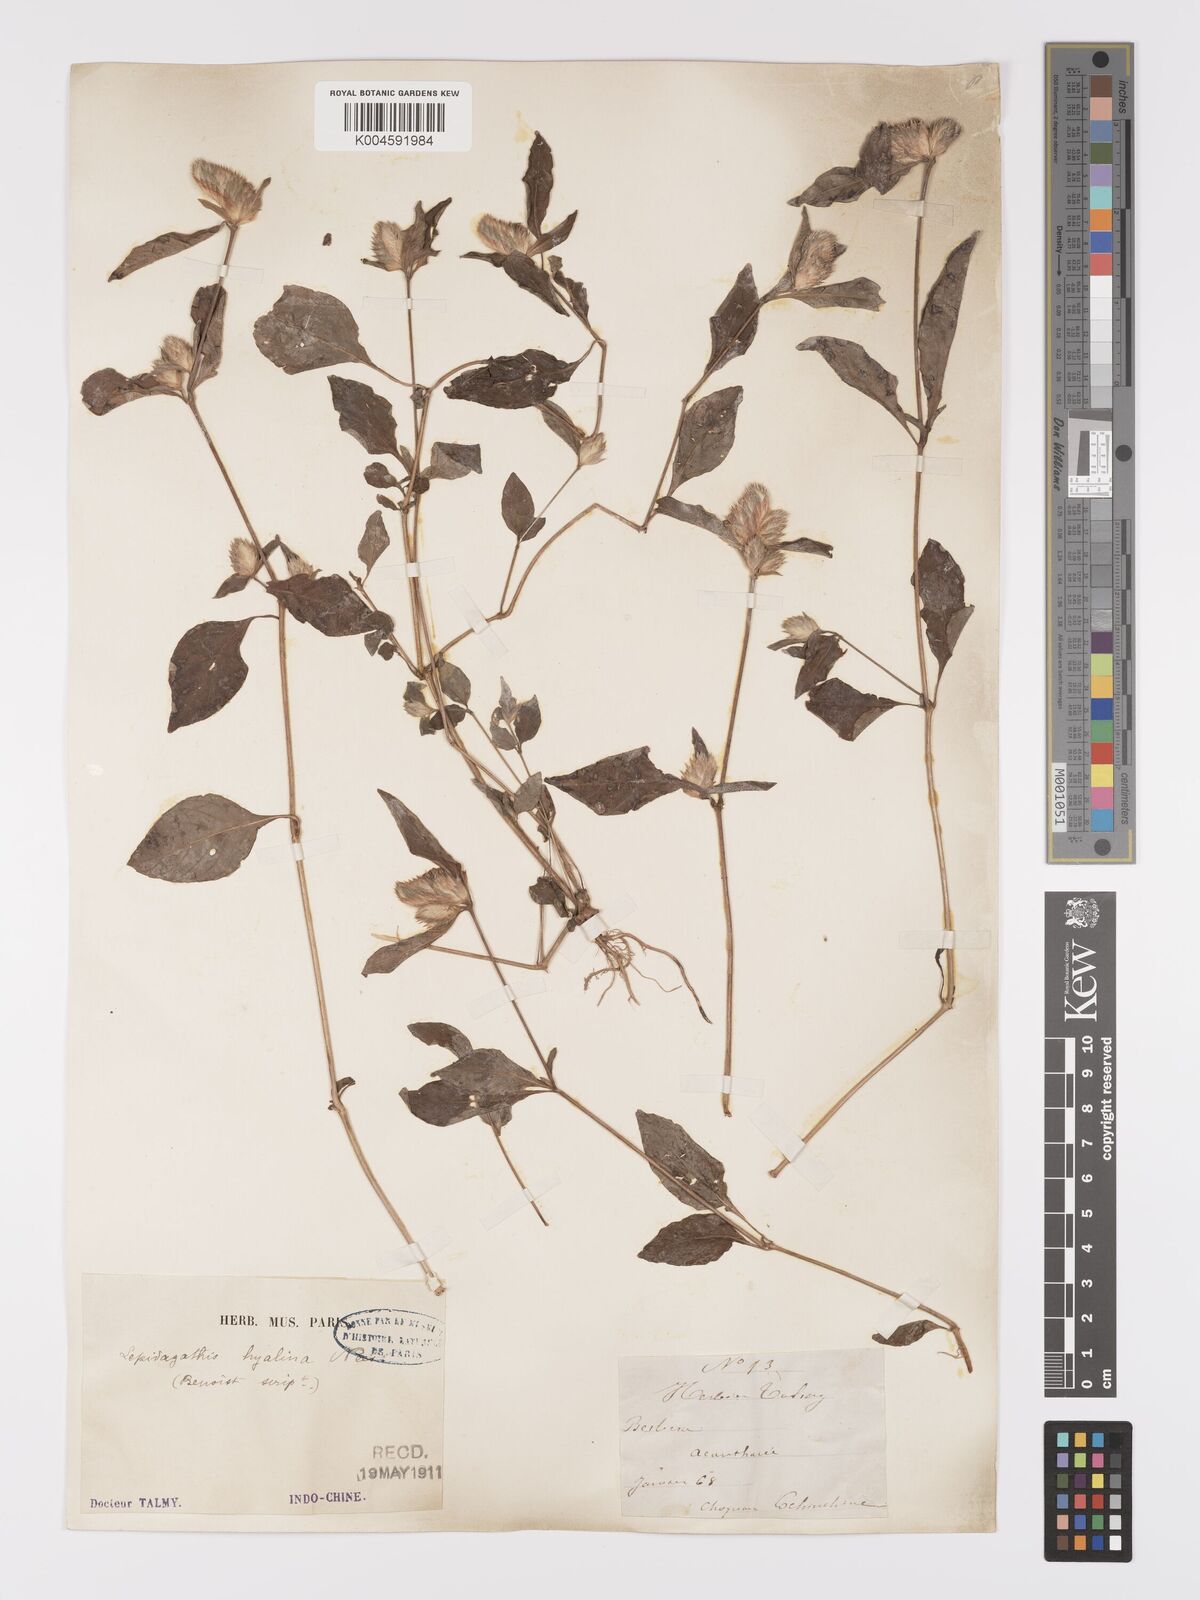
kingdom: Plantae
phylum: Tracheophyta
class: Magnoliopsida
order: Lamiales
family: Acanthaceae
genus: Lepidagathis
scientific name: Lepidagathis incurva
